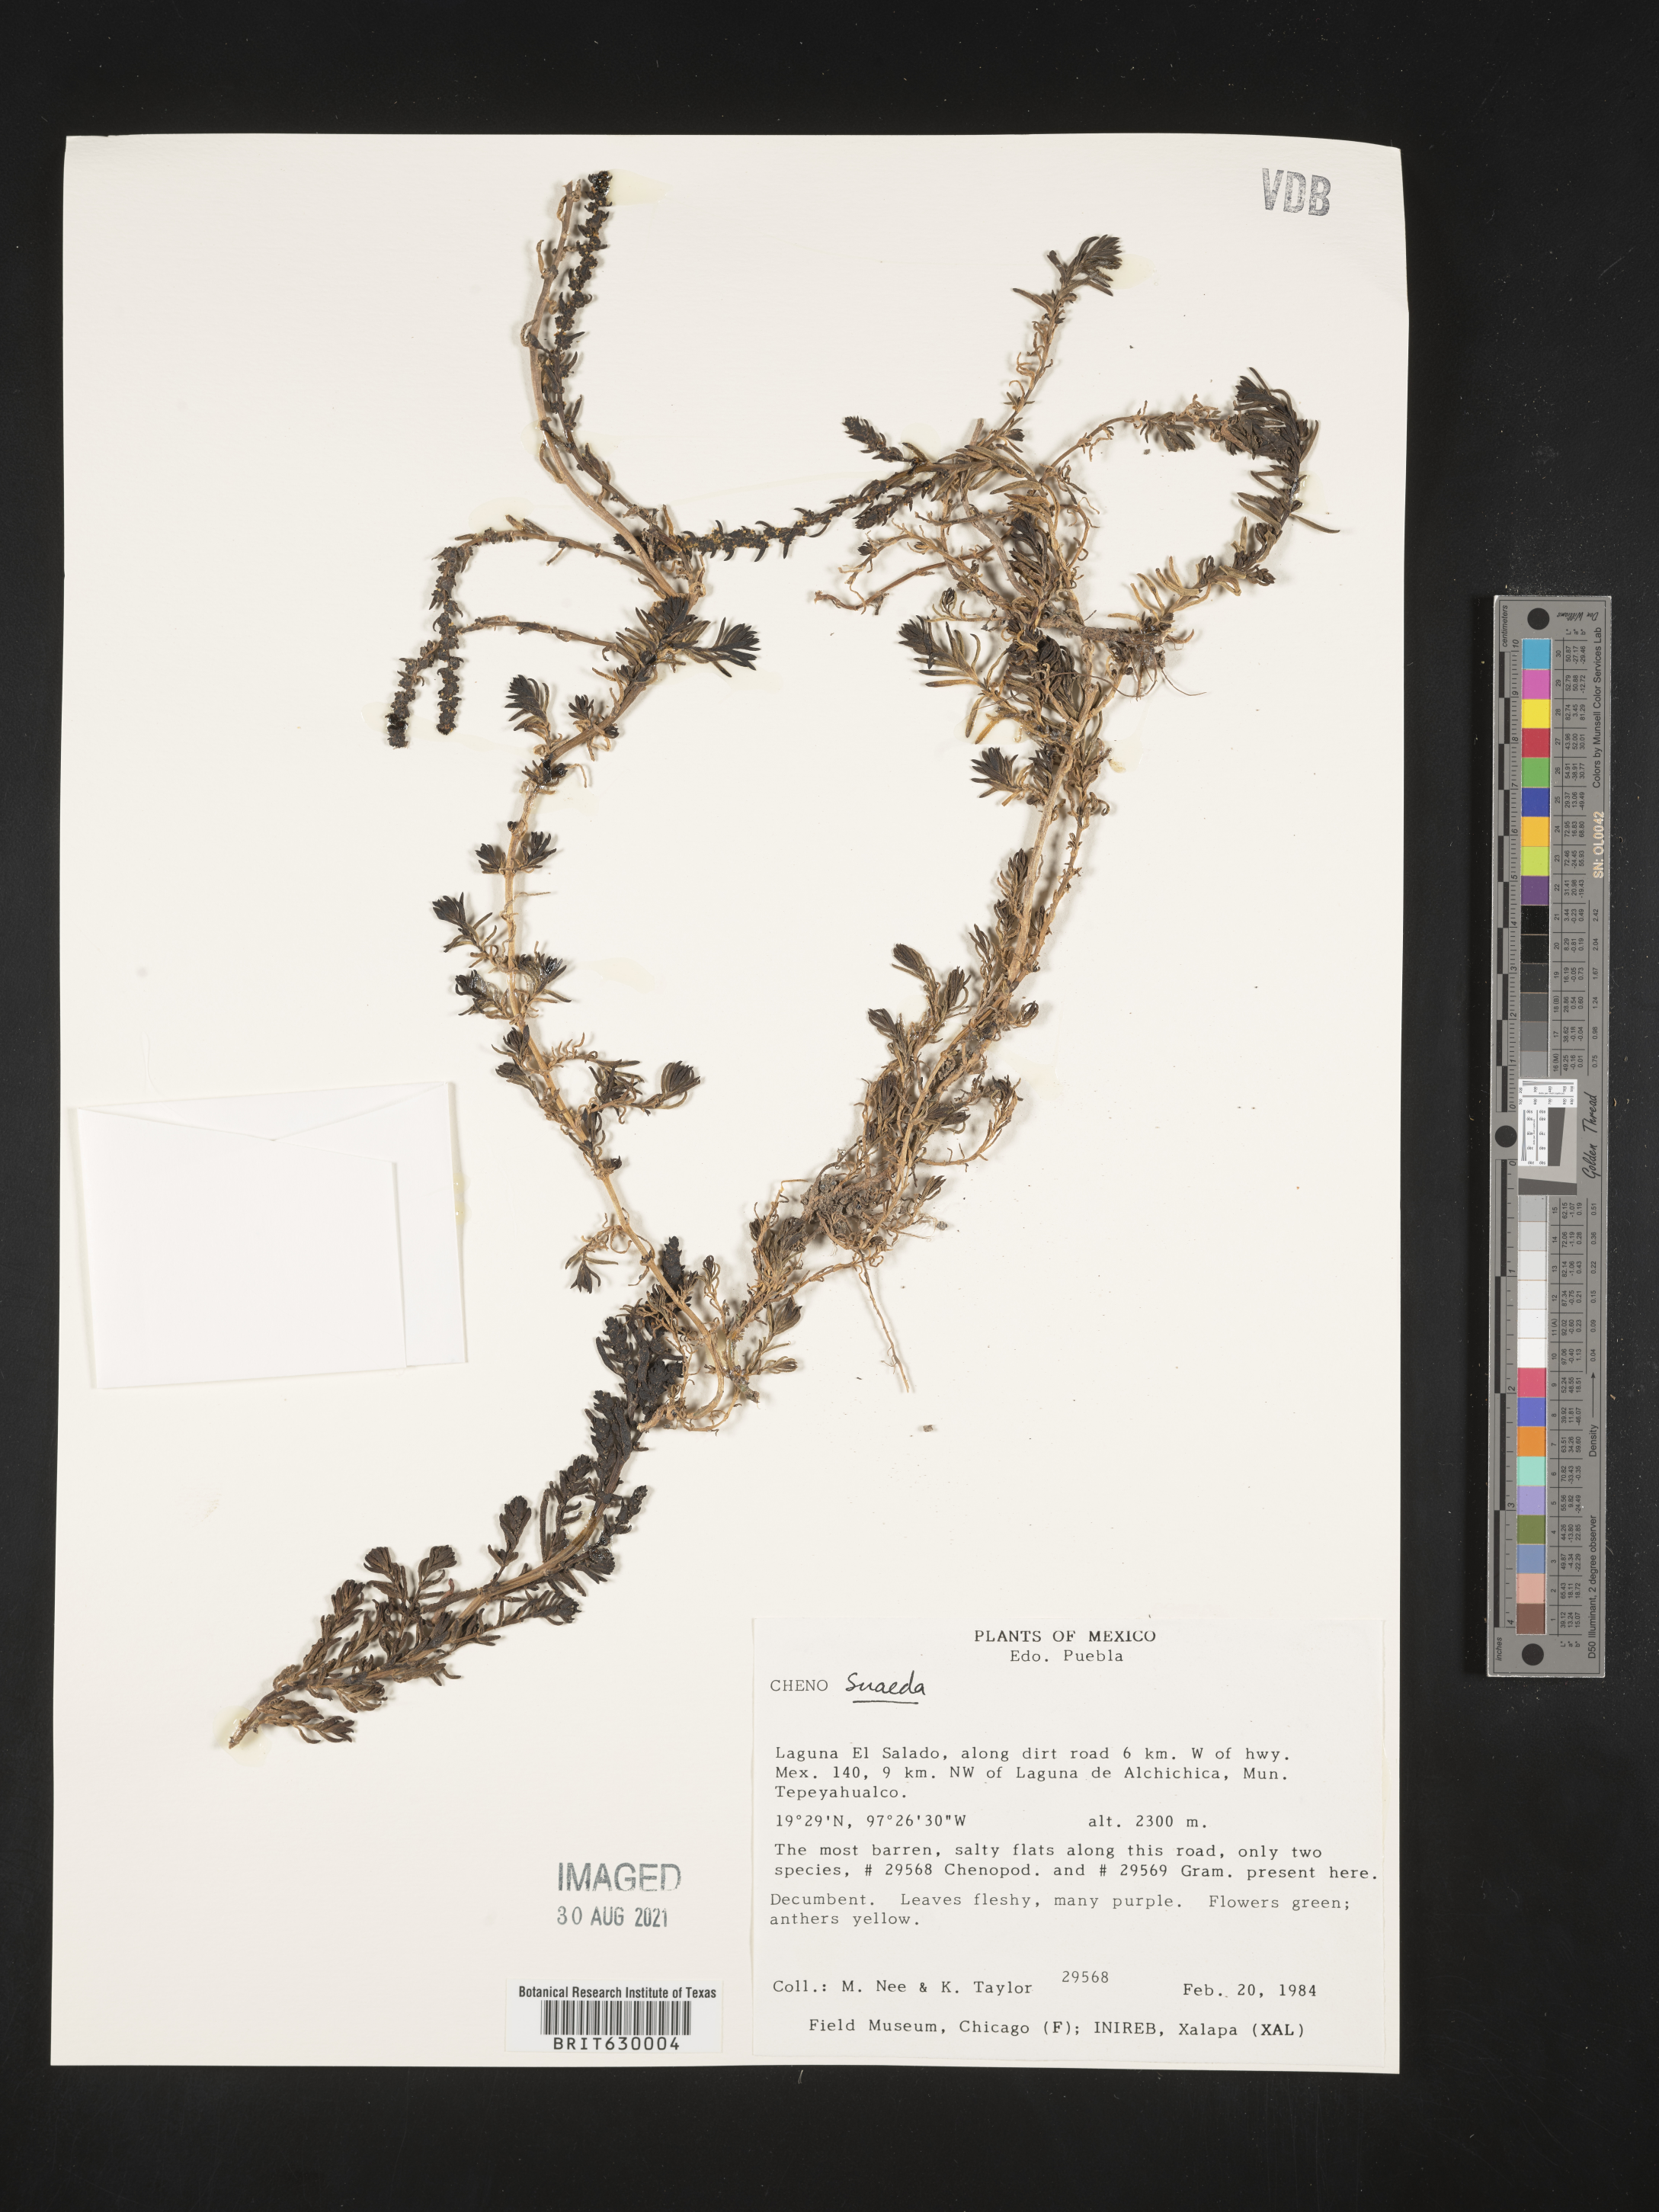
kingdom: Plantae
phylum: Tracheophyta
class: Magnoliopsida
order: Caryophyllales
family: Amaranthaceae
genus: Suaeda
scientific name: Suaeda
